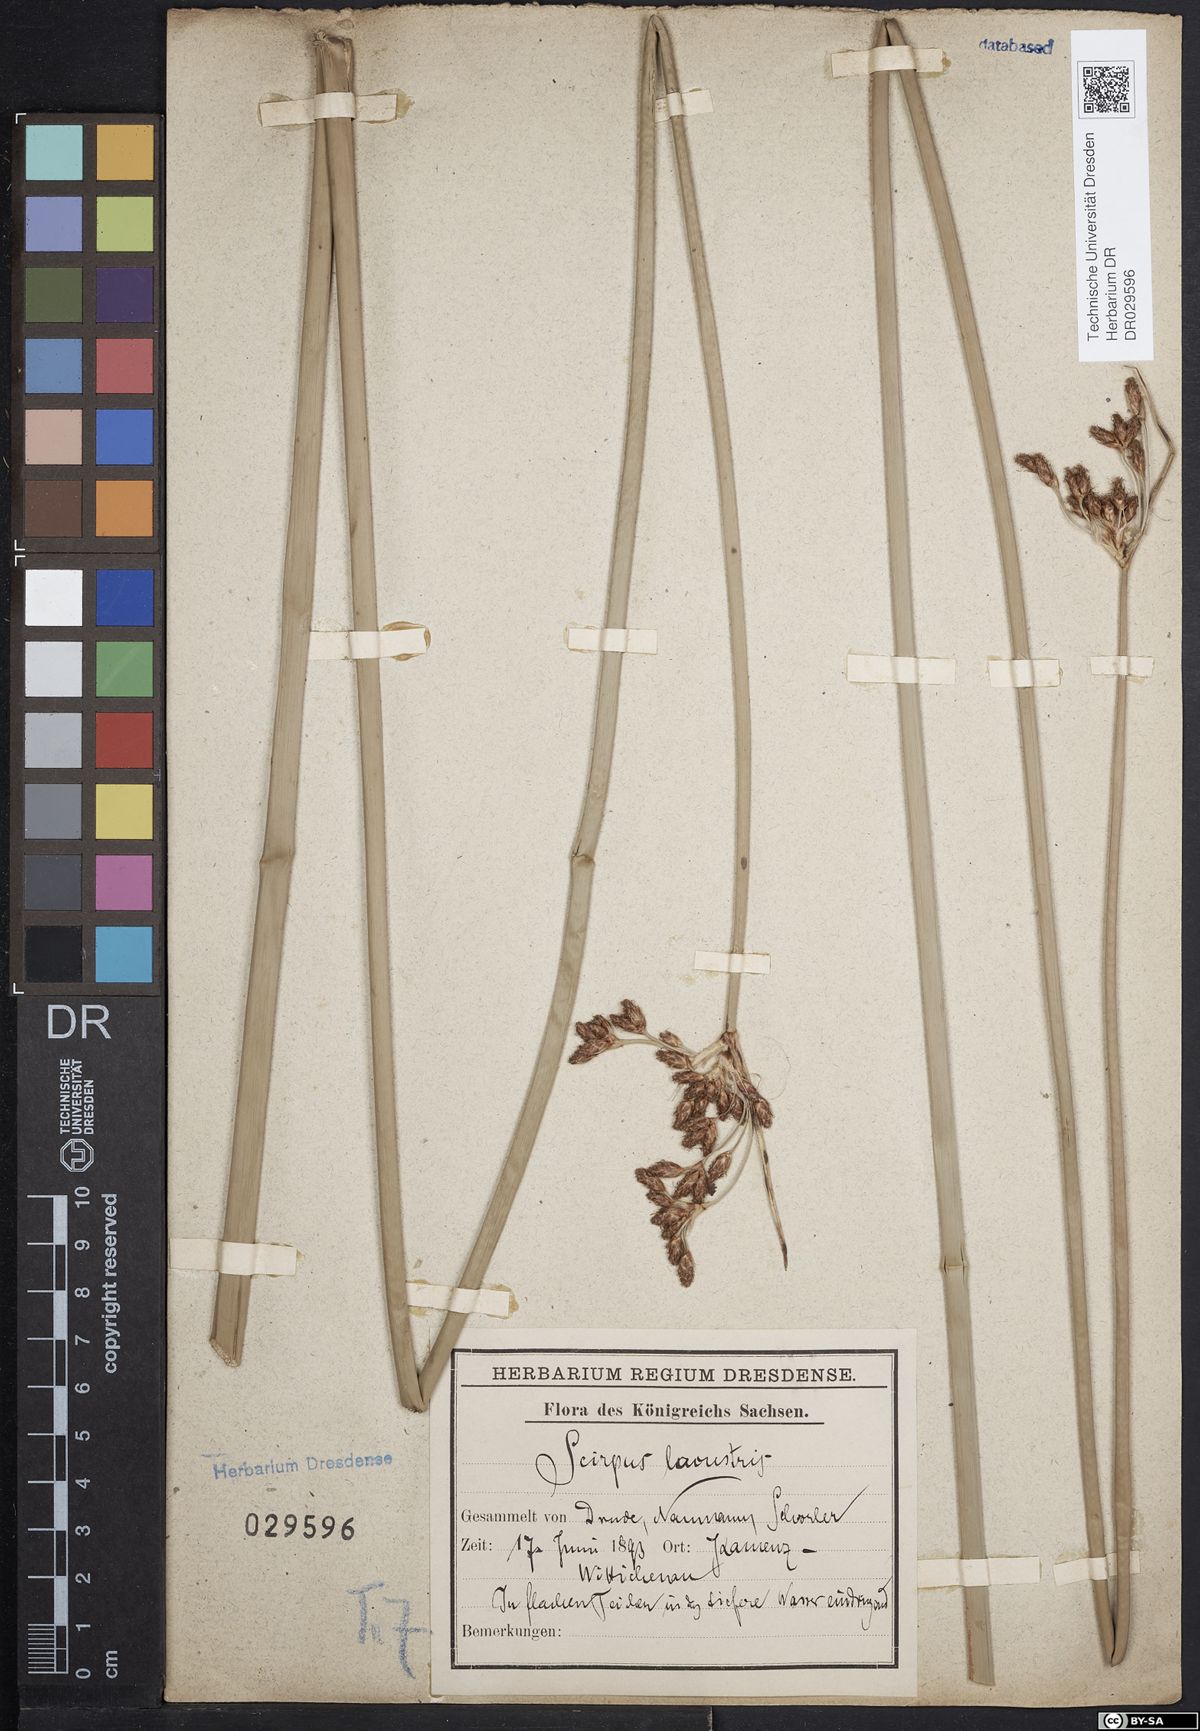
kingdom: Plantae
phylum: Tracheophyta
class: Liliopsida
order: Poales
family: Cyperaceae
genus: Schoenoplectus
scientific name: Schoenoplectus lacustris
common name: Common club-rush
